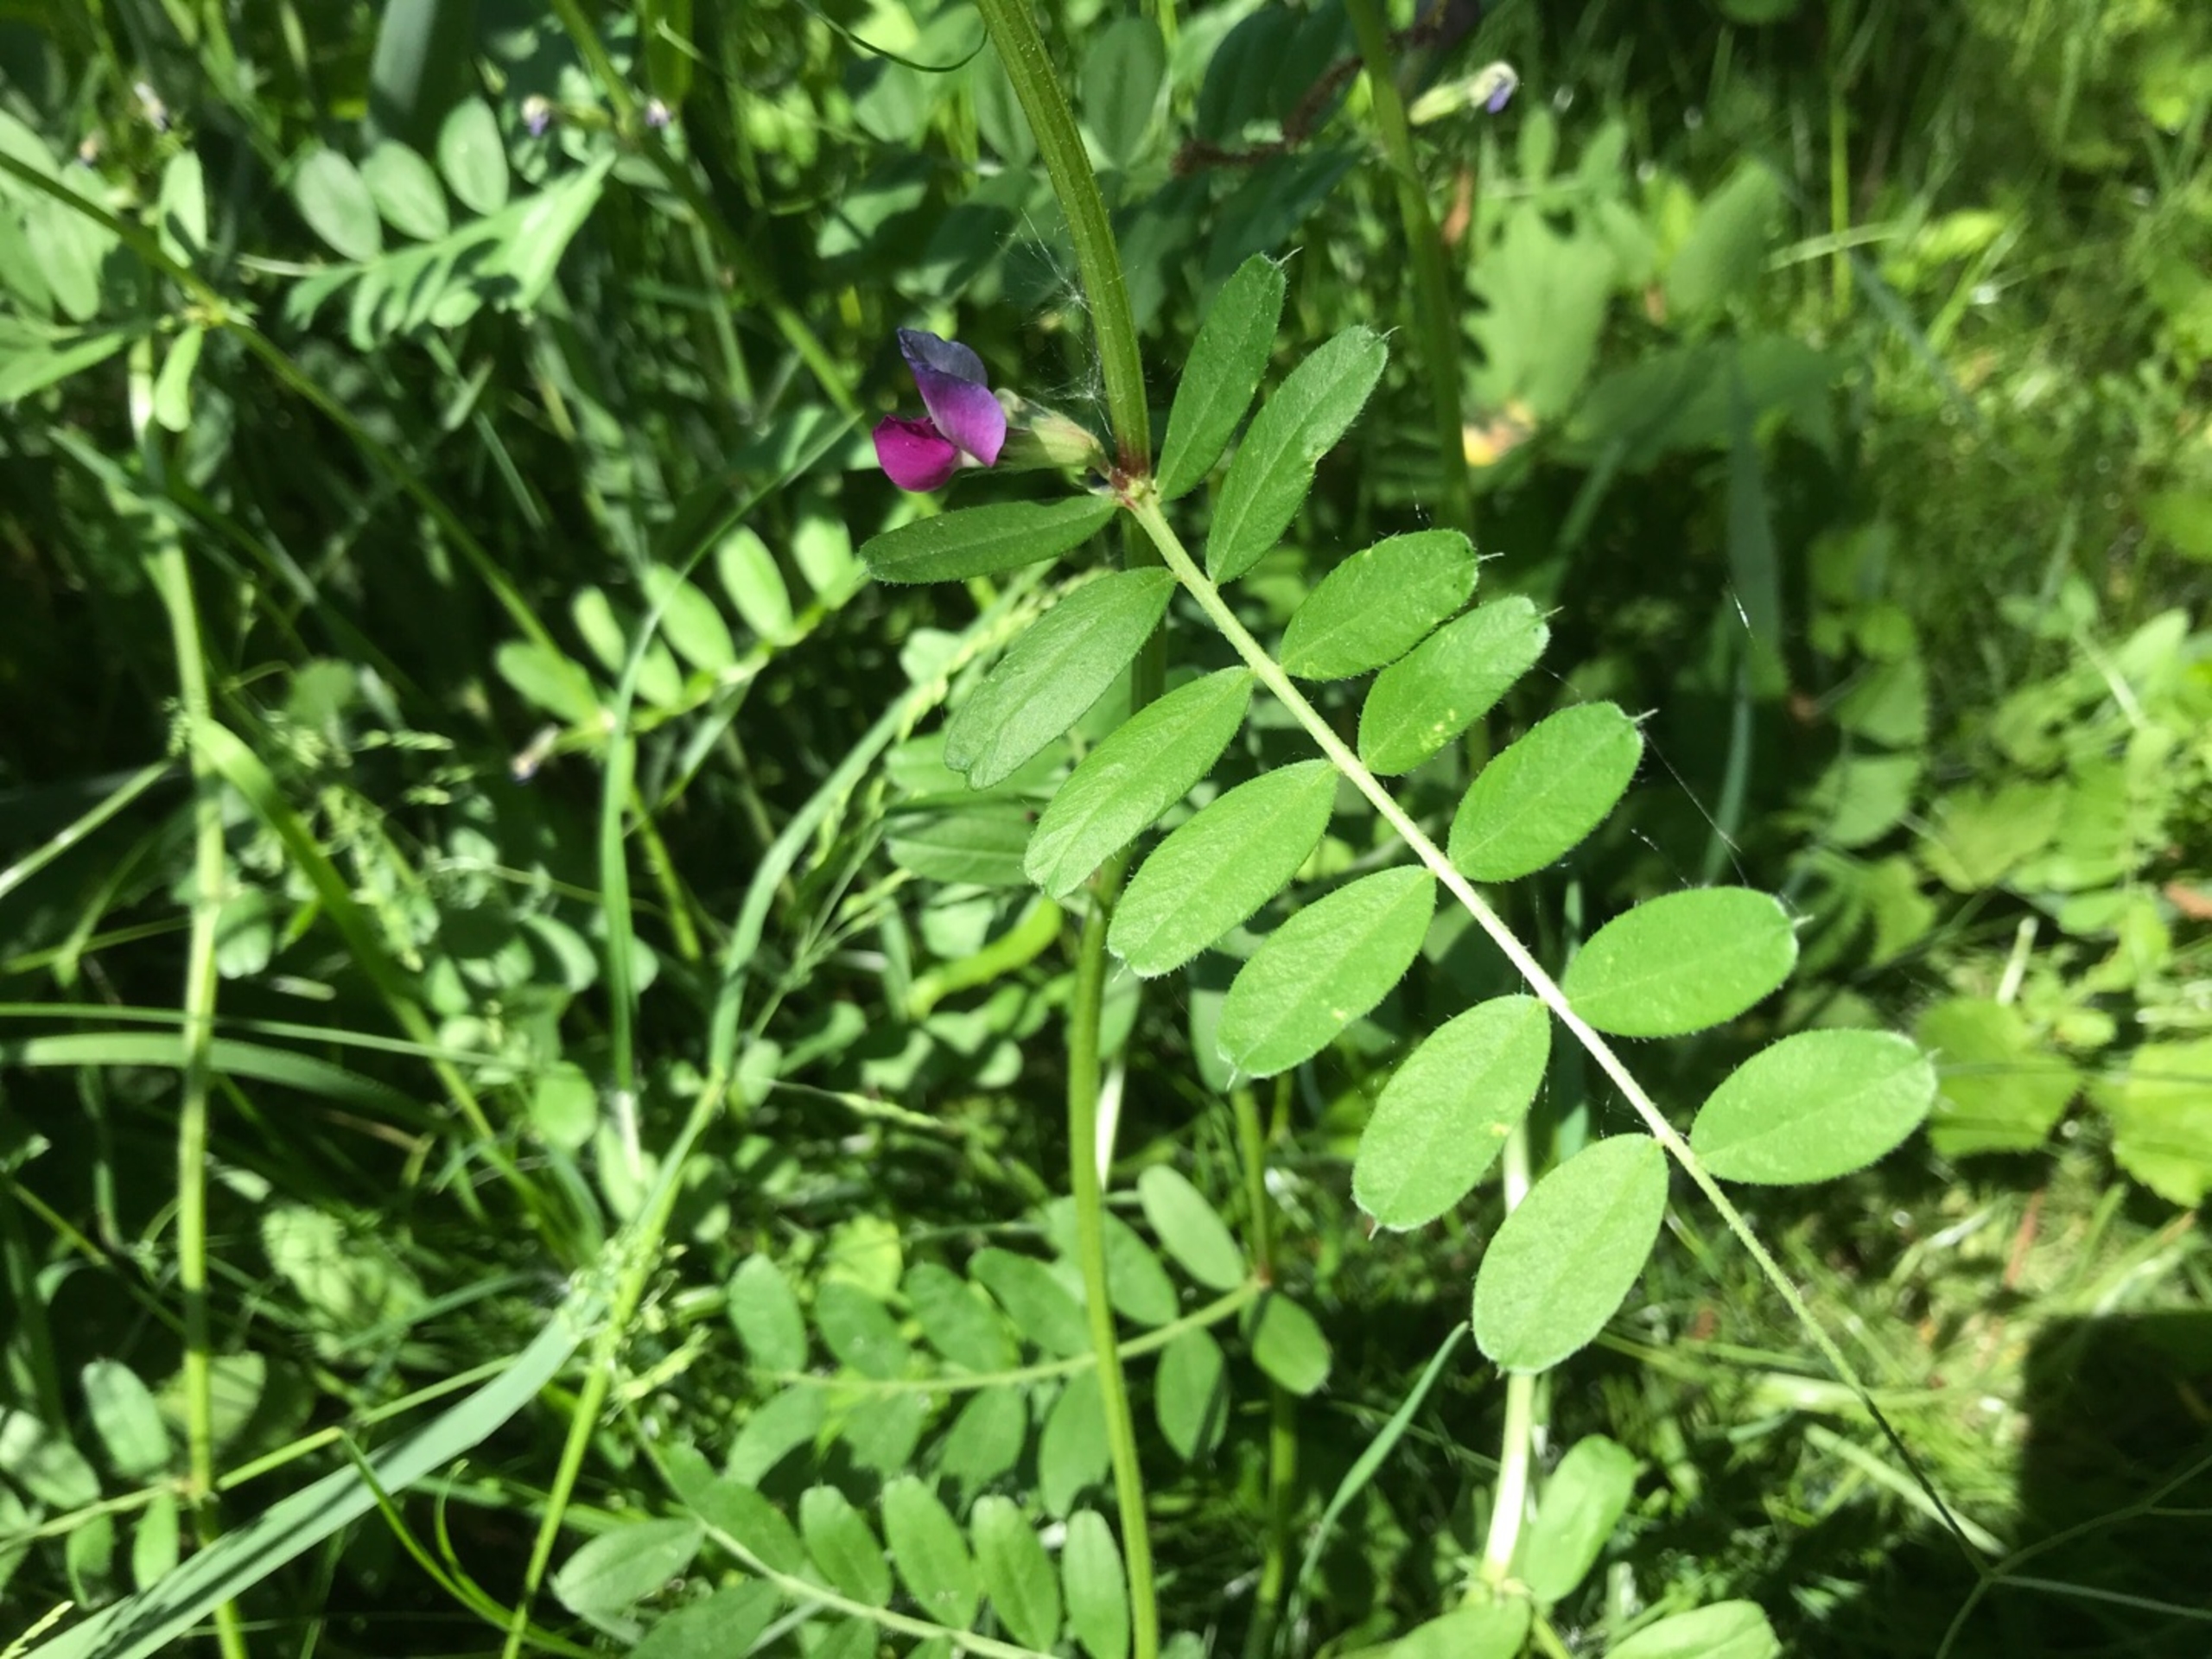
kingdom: Plantae
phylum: Tracheophyta
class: Magnoliopsida
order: Fabales
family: Fabaceae
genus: Vicia
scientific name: Vicia sativa
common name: Foder-vikke
